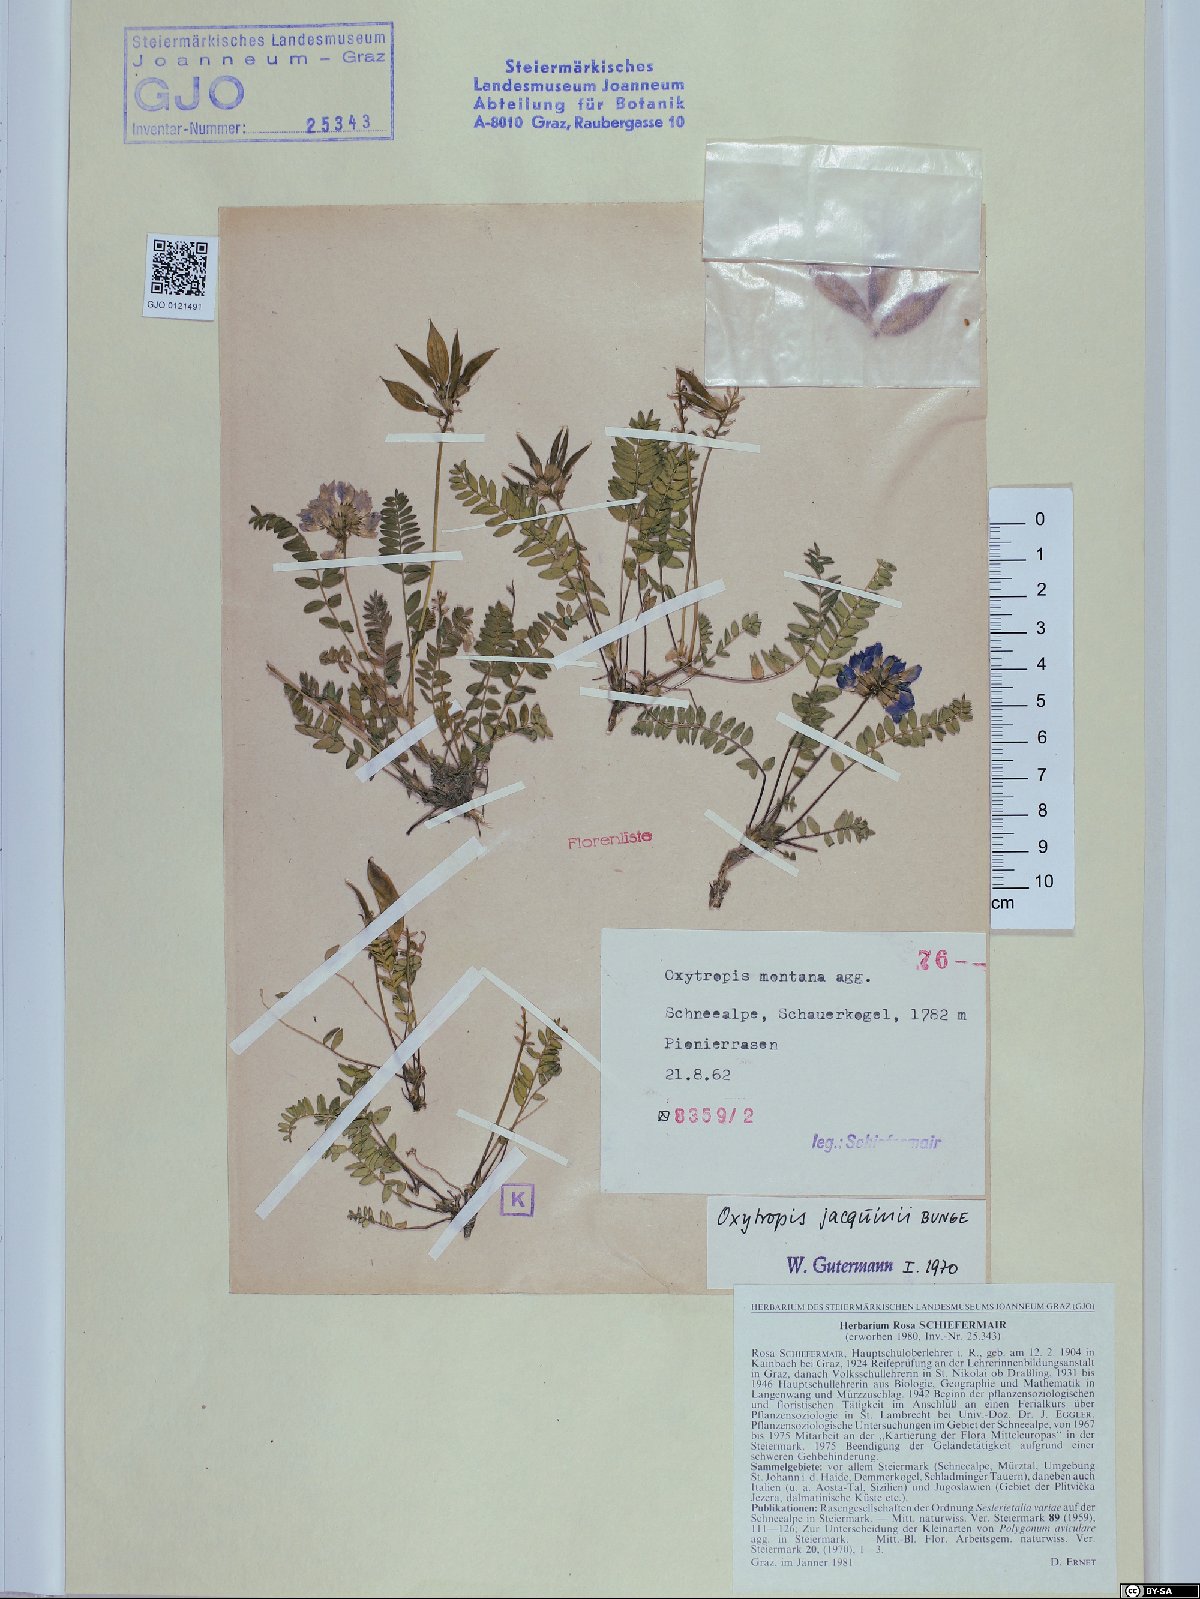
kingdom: Plantae
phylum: Tracheophyta
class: Magnoliopsida
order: Fabales
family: Fabaceae
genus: Oxytropis
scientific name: Oxytropis montana
